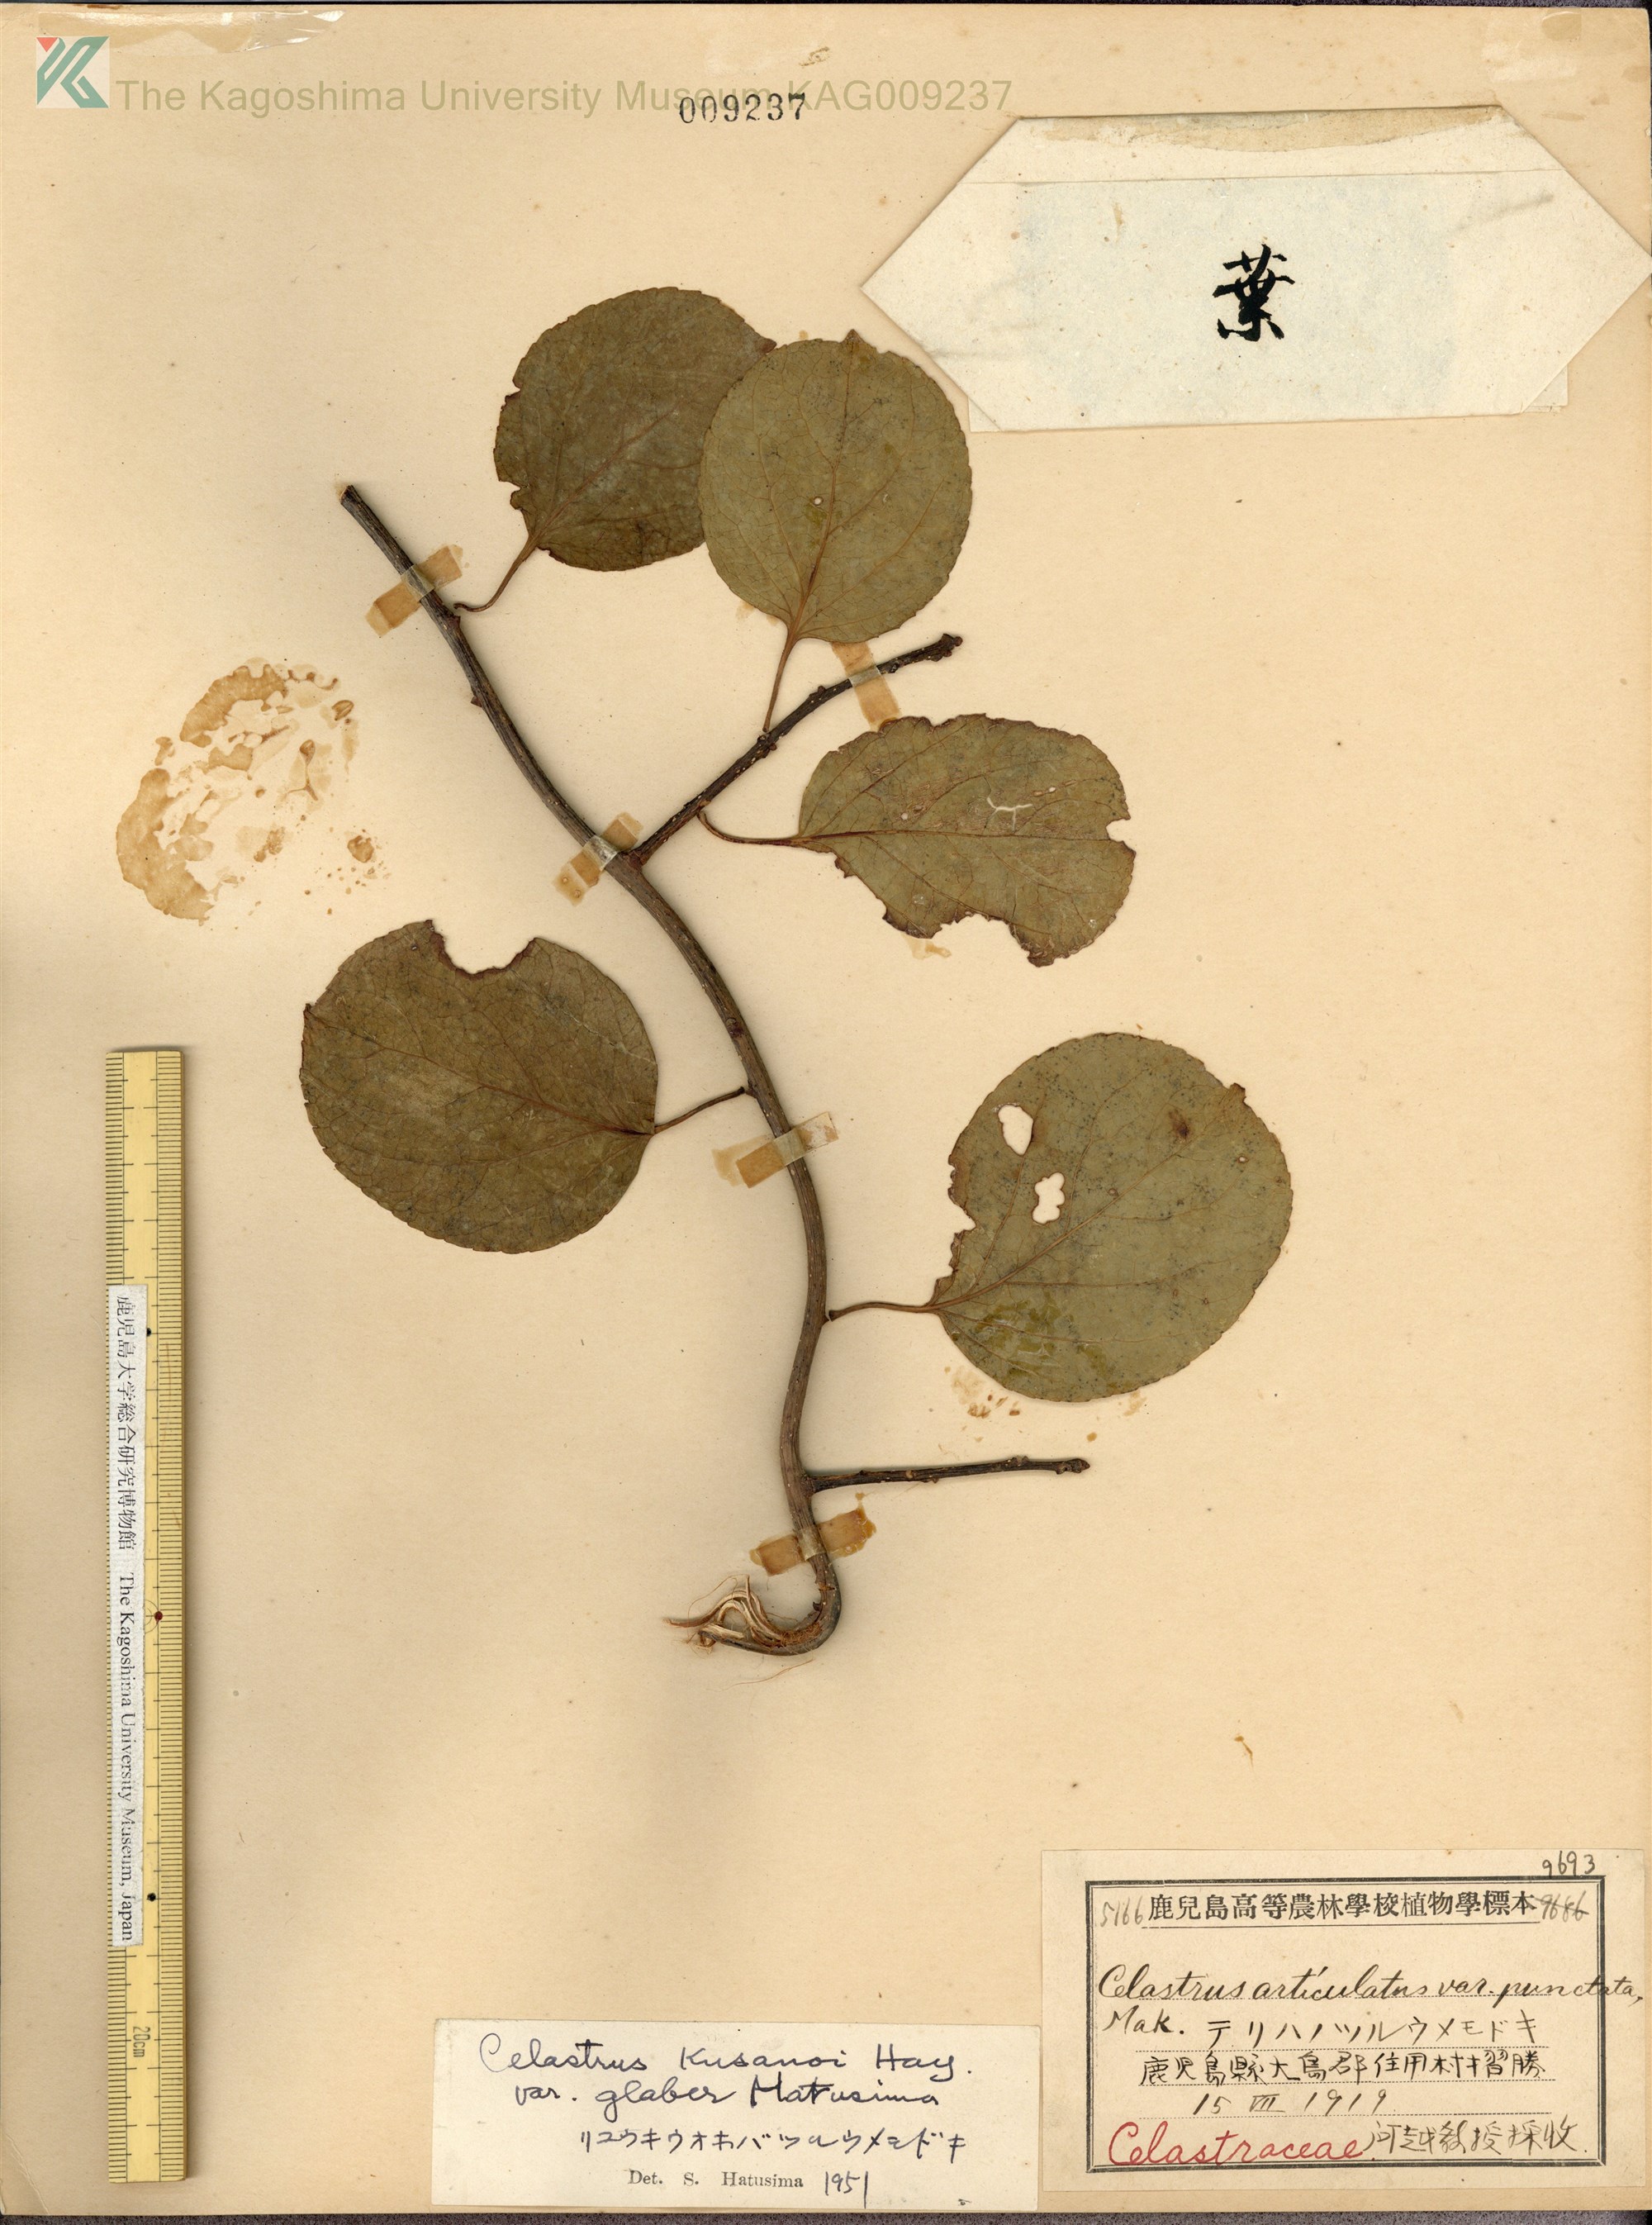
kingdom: Plantae
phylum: Tracheophyta
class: Magnoliopsida
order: Celastrales
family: Celastraceae
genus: Celastrus
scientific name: Celastrus hypoleucus
